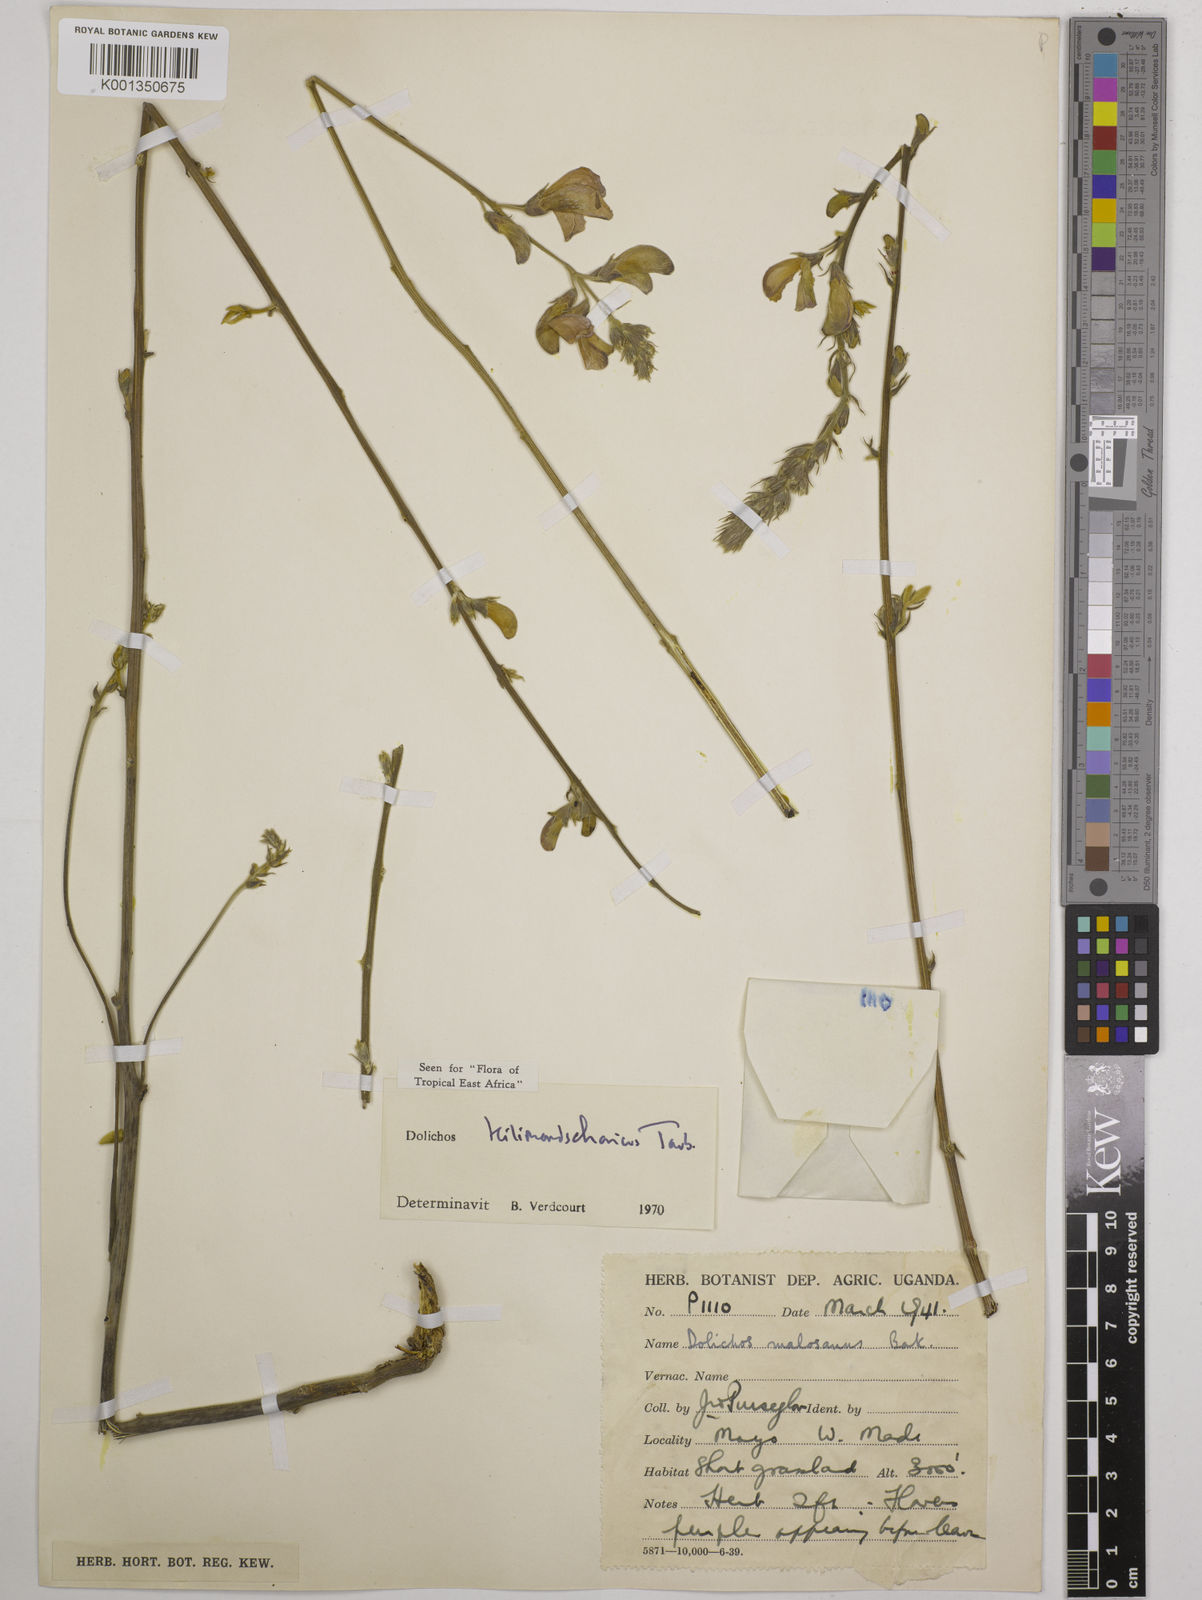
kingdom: Plantae
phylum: Tracheophyta
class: Magnoliopsida
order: Fabales
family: Fabaceae
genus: Dolichos
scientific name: Dolichos kilimandscharicus
